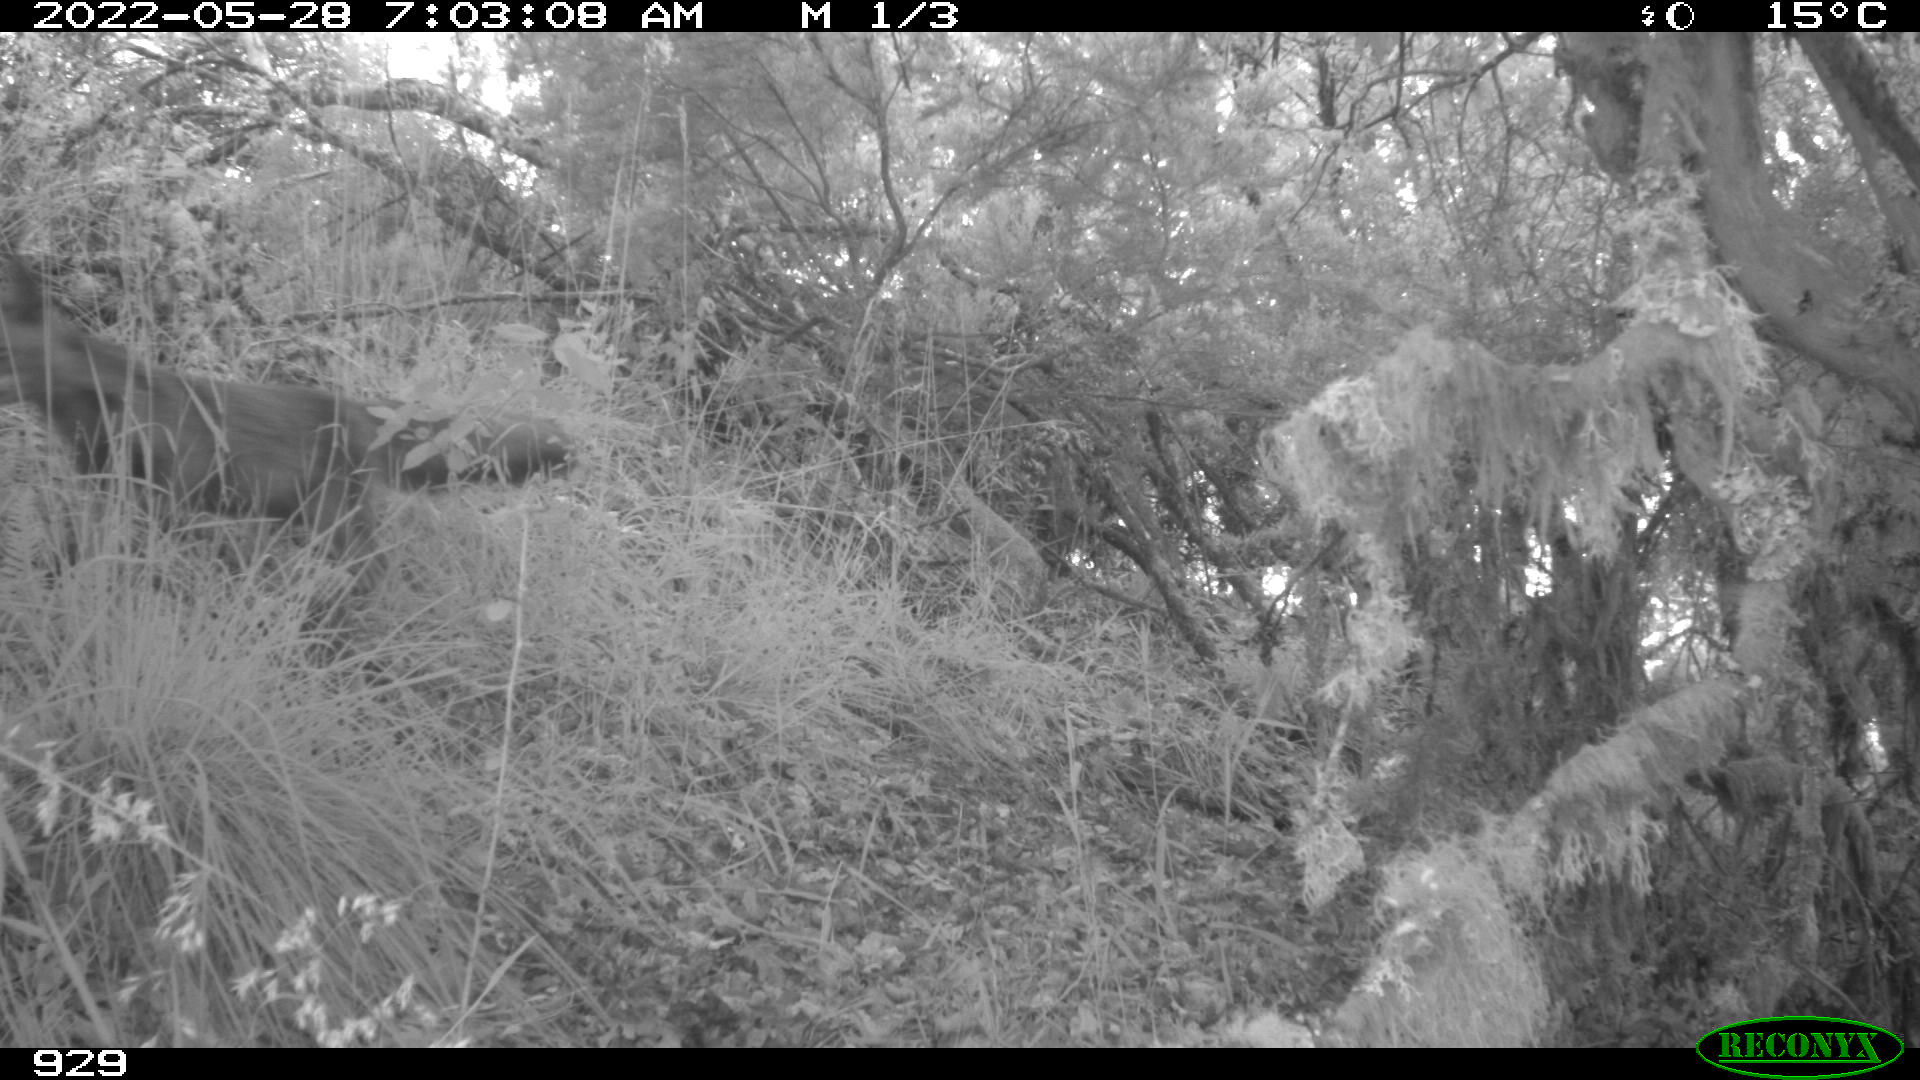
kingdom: Animalia
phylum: Chordata
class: Mammalia
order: Carnivora
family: Canidae
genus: Vulpes
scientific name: Vulpes vulpes
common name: Red fox
